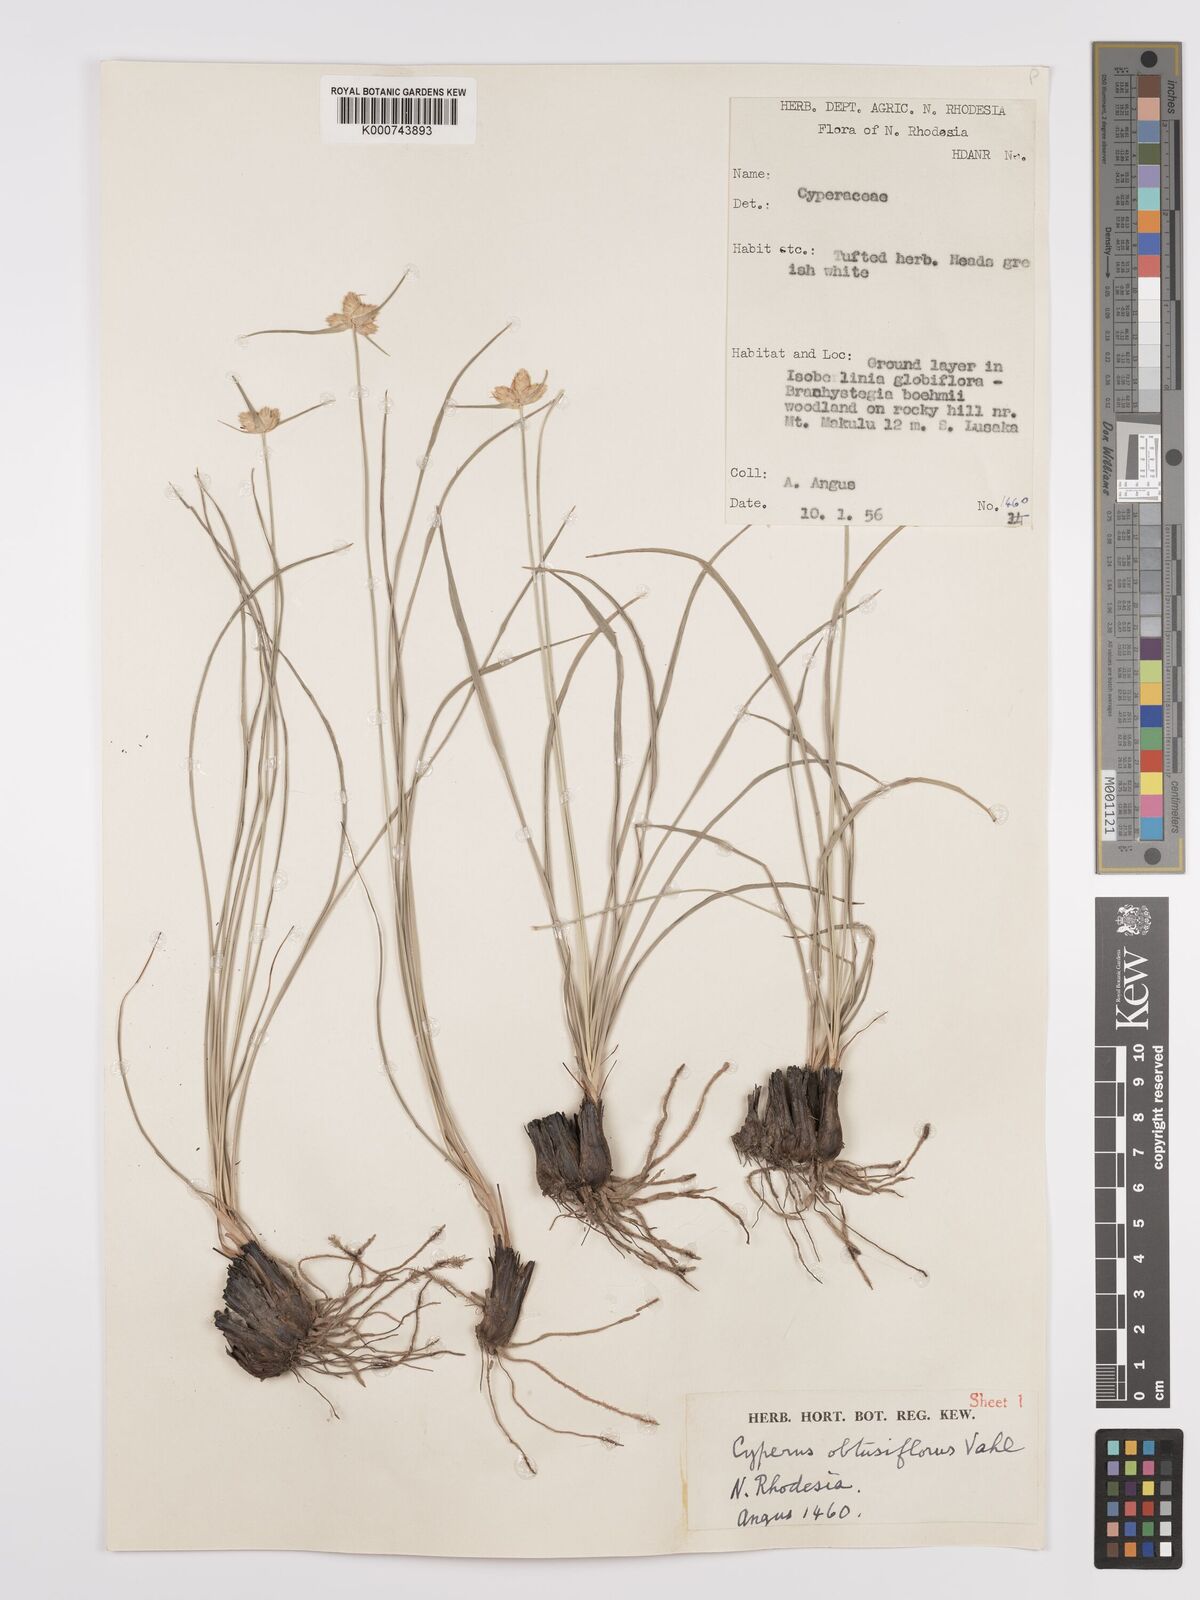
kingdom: Plantae
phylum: Tracheophyta
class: Liliopsida
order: Poales
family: Cyperaceae
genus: Cyperus
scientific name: Cyperus margaritaceus
